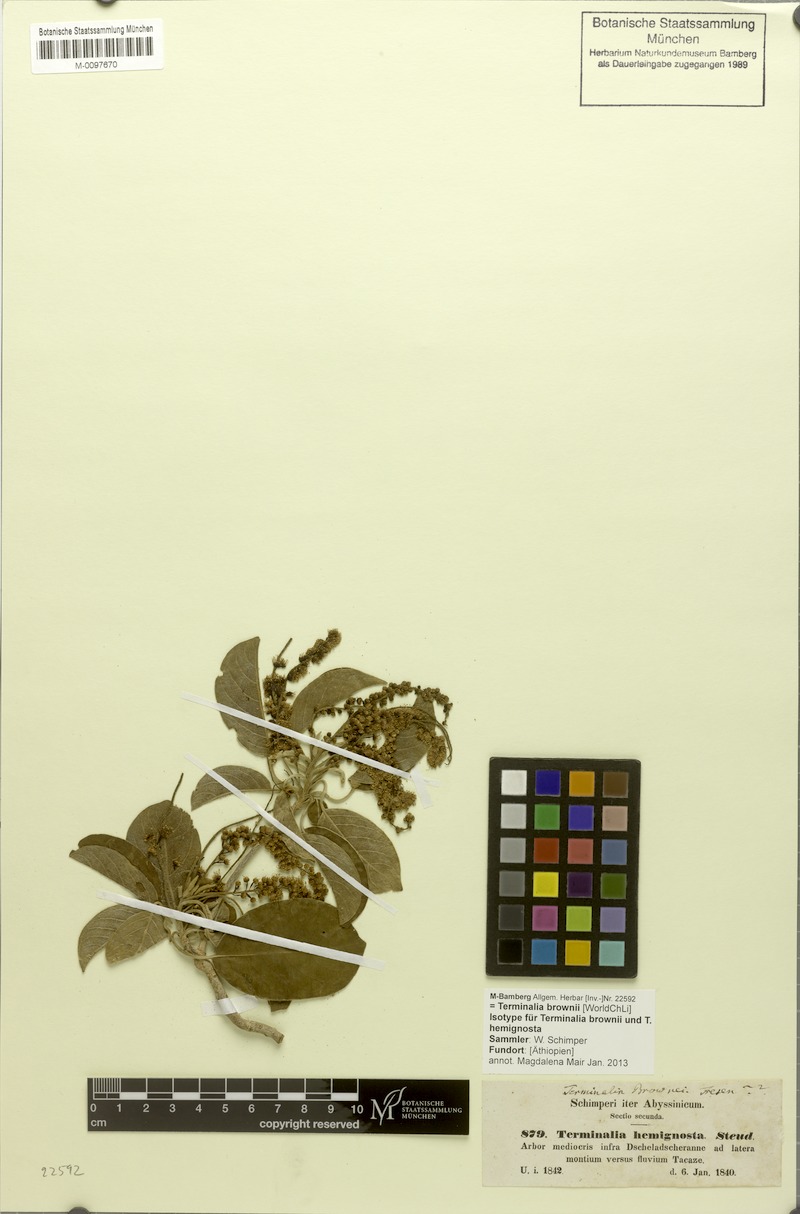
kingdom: Plantae
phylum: Tracheophyta
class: Magnoliopsida
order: Myrtales
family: Combretaceae
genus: Terminalia
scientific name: Terminalia brownii
